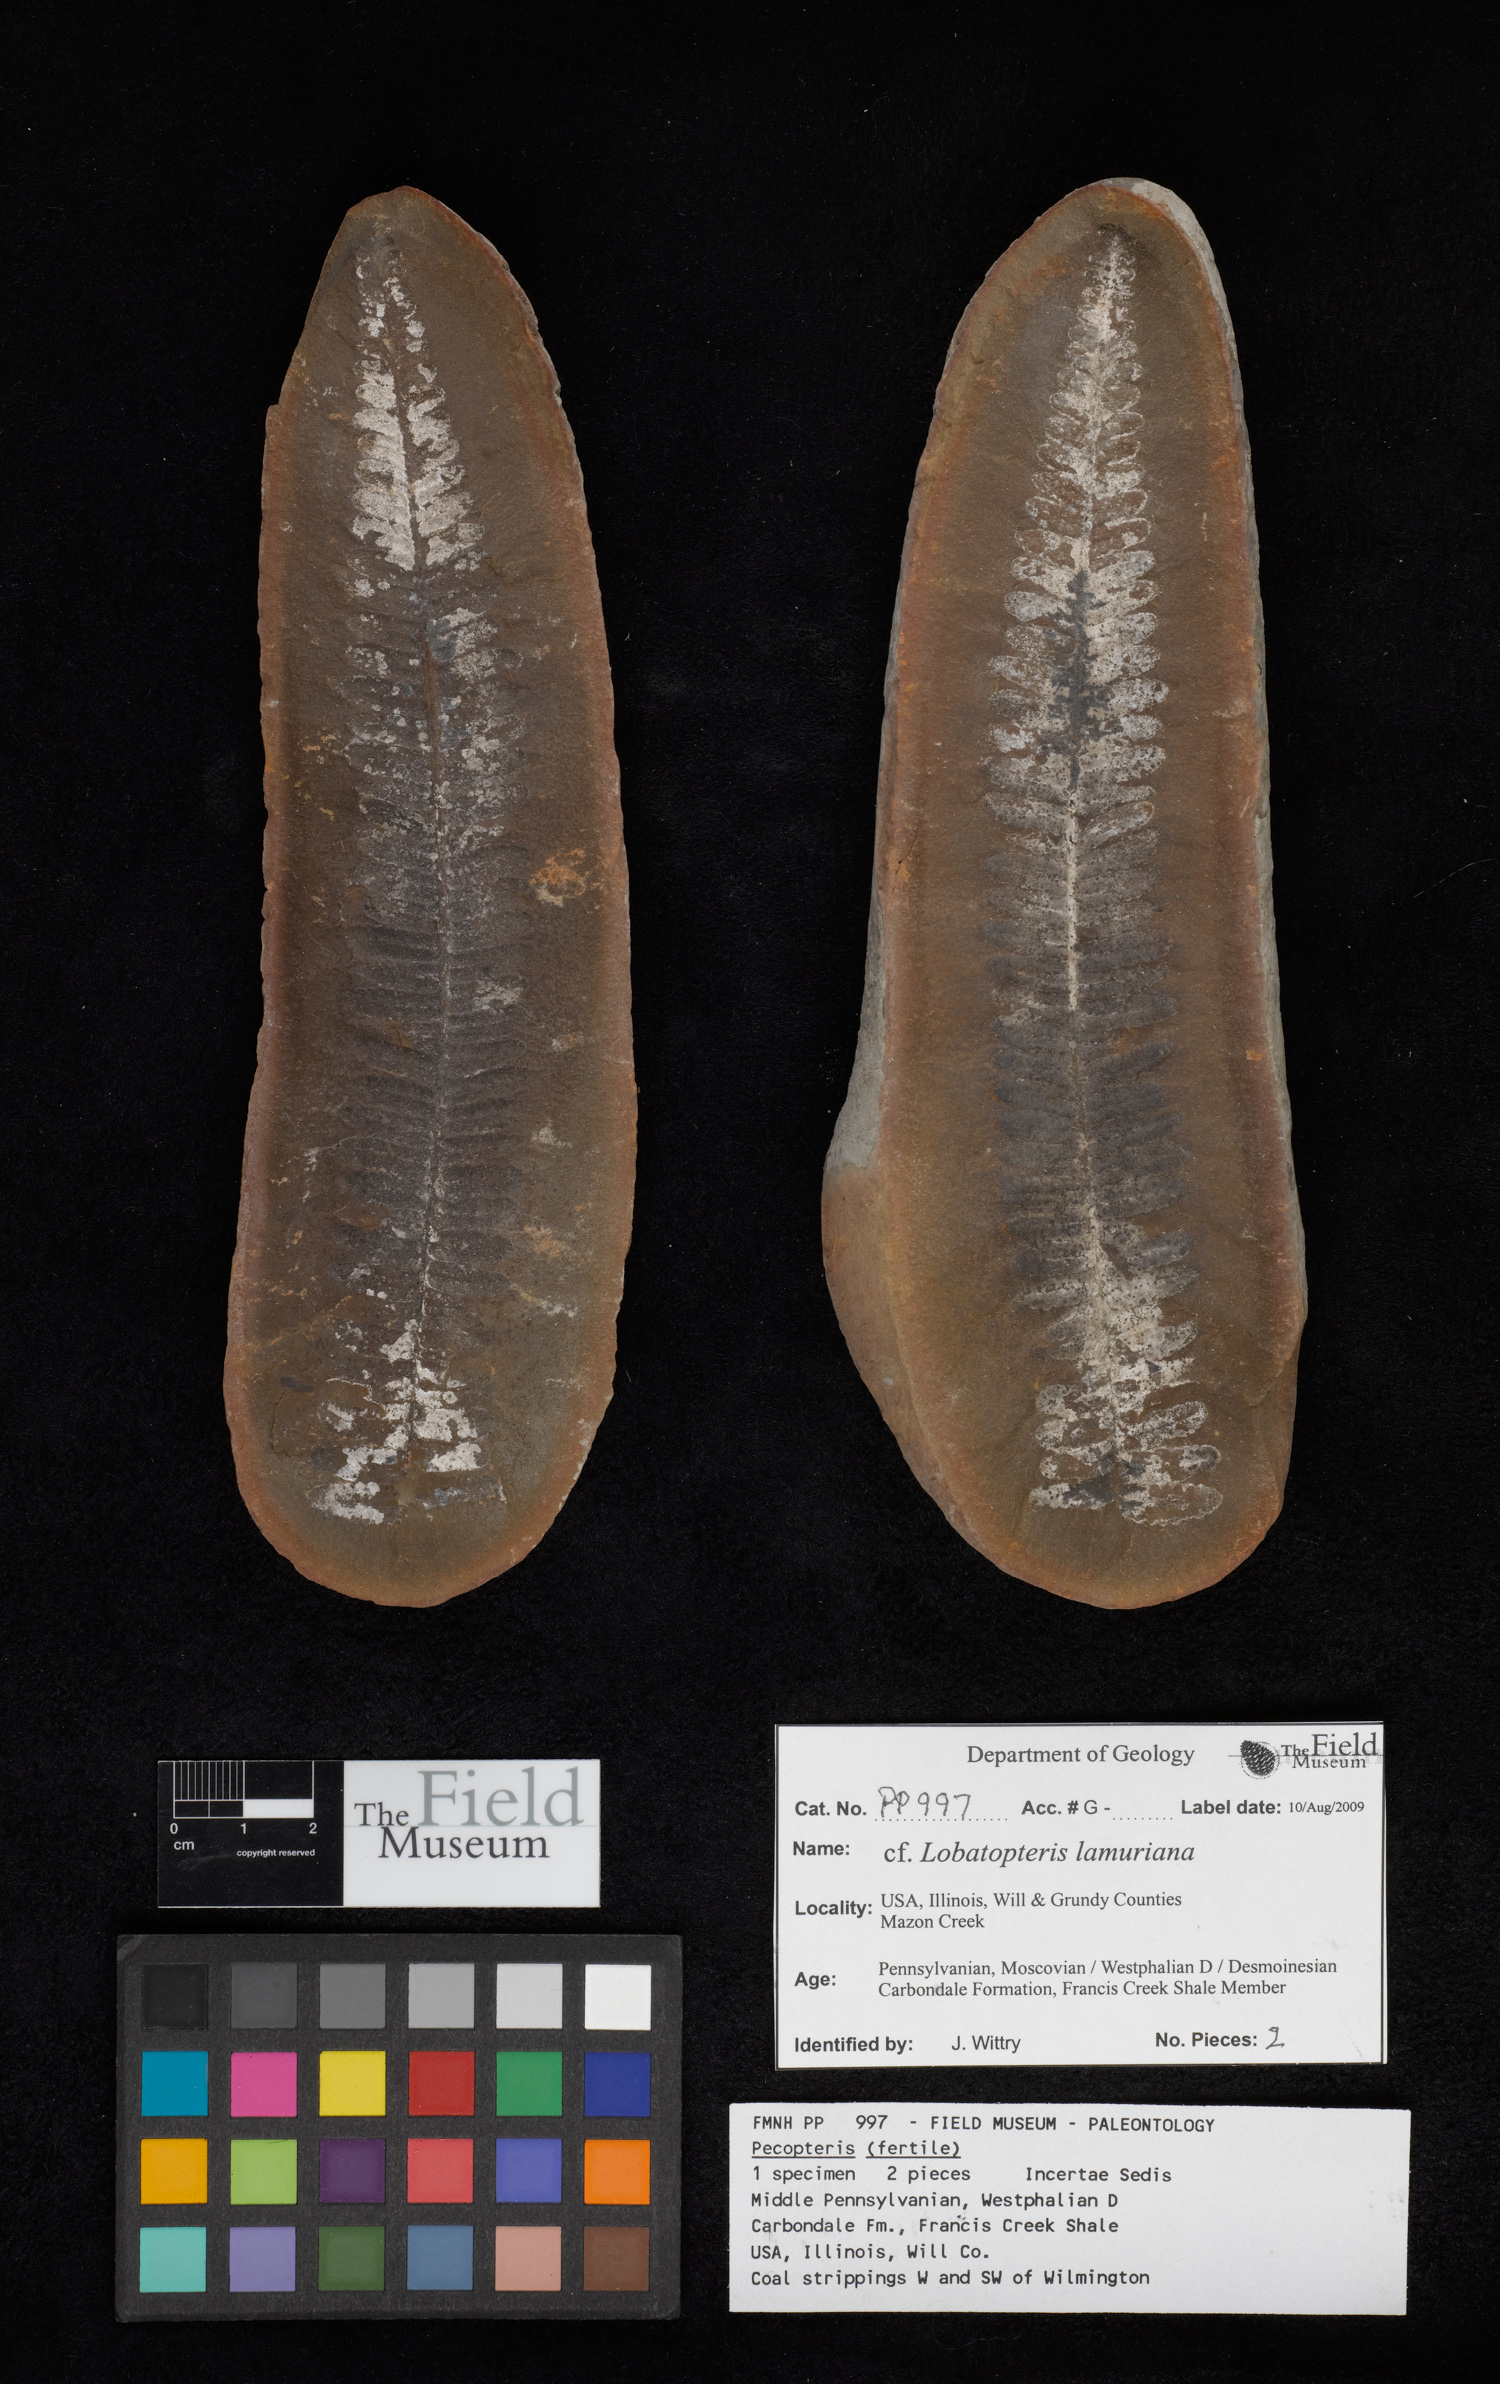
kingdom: Plantae
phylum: Tracheophyta
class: Polypodiopsida
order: Marattiales
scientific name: Marattiales
